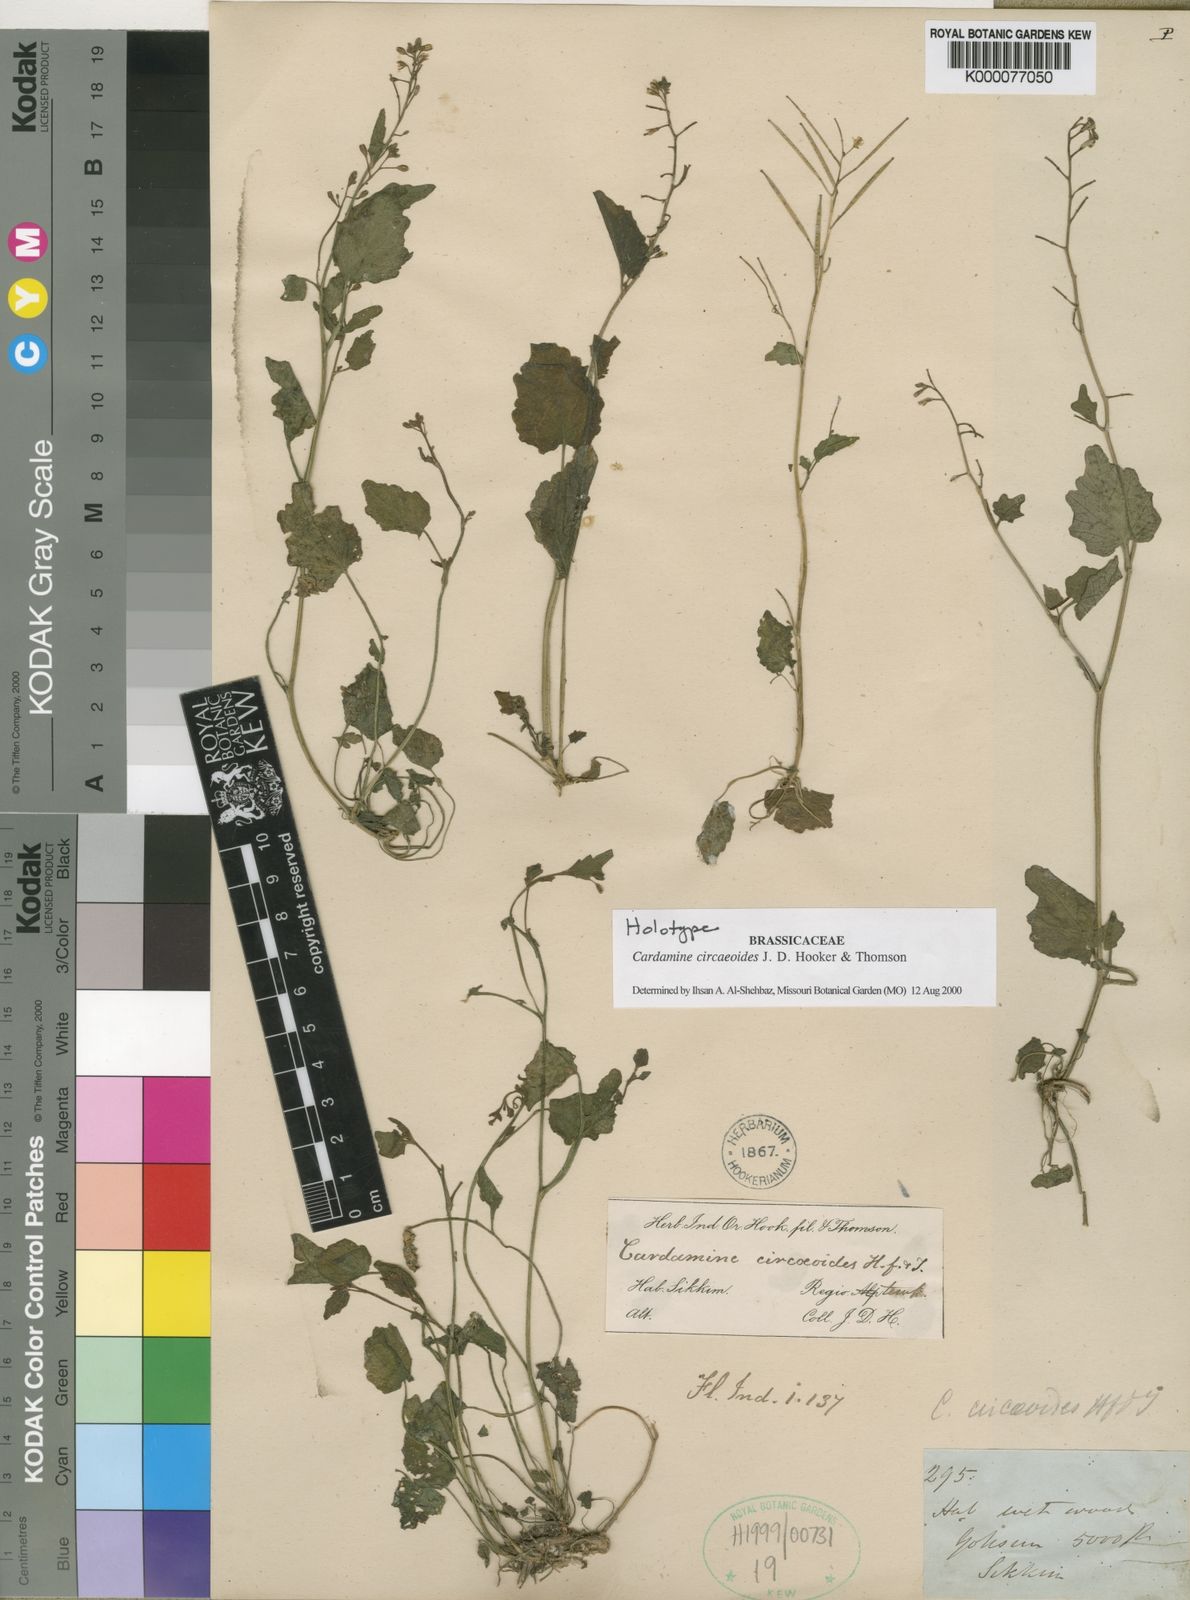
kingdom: Plantae
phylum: Tracheophyta
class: Magnoliopsida
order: Brassicales
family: Brassicaceae
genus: Cardamine
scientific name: Cardamine circaeoides
